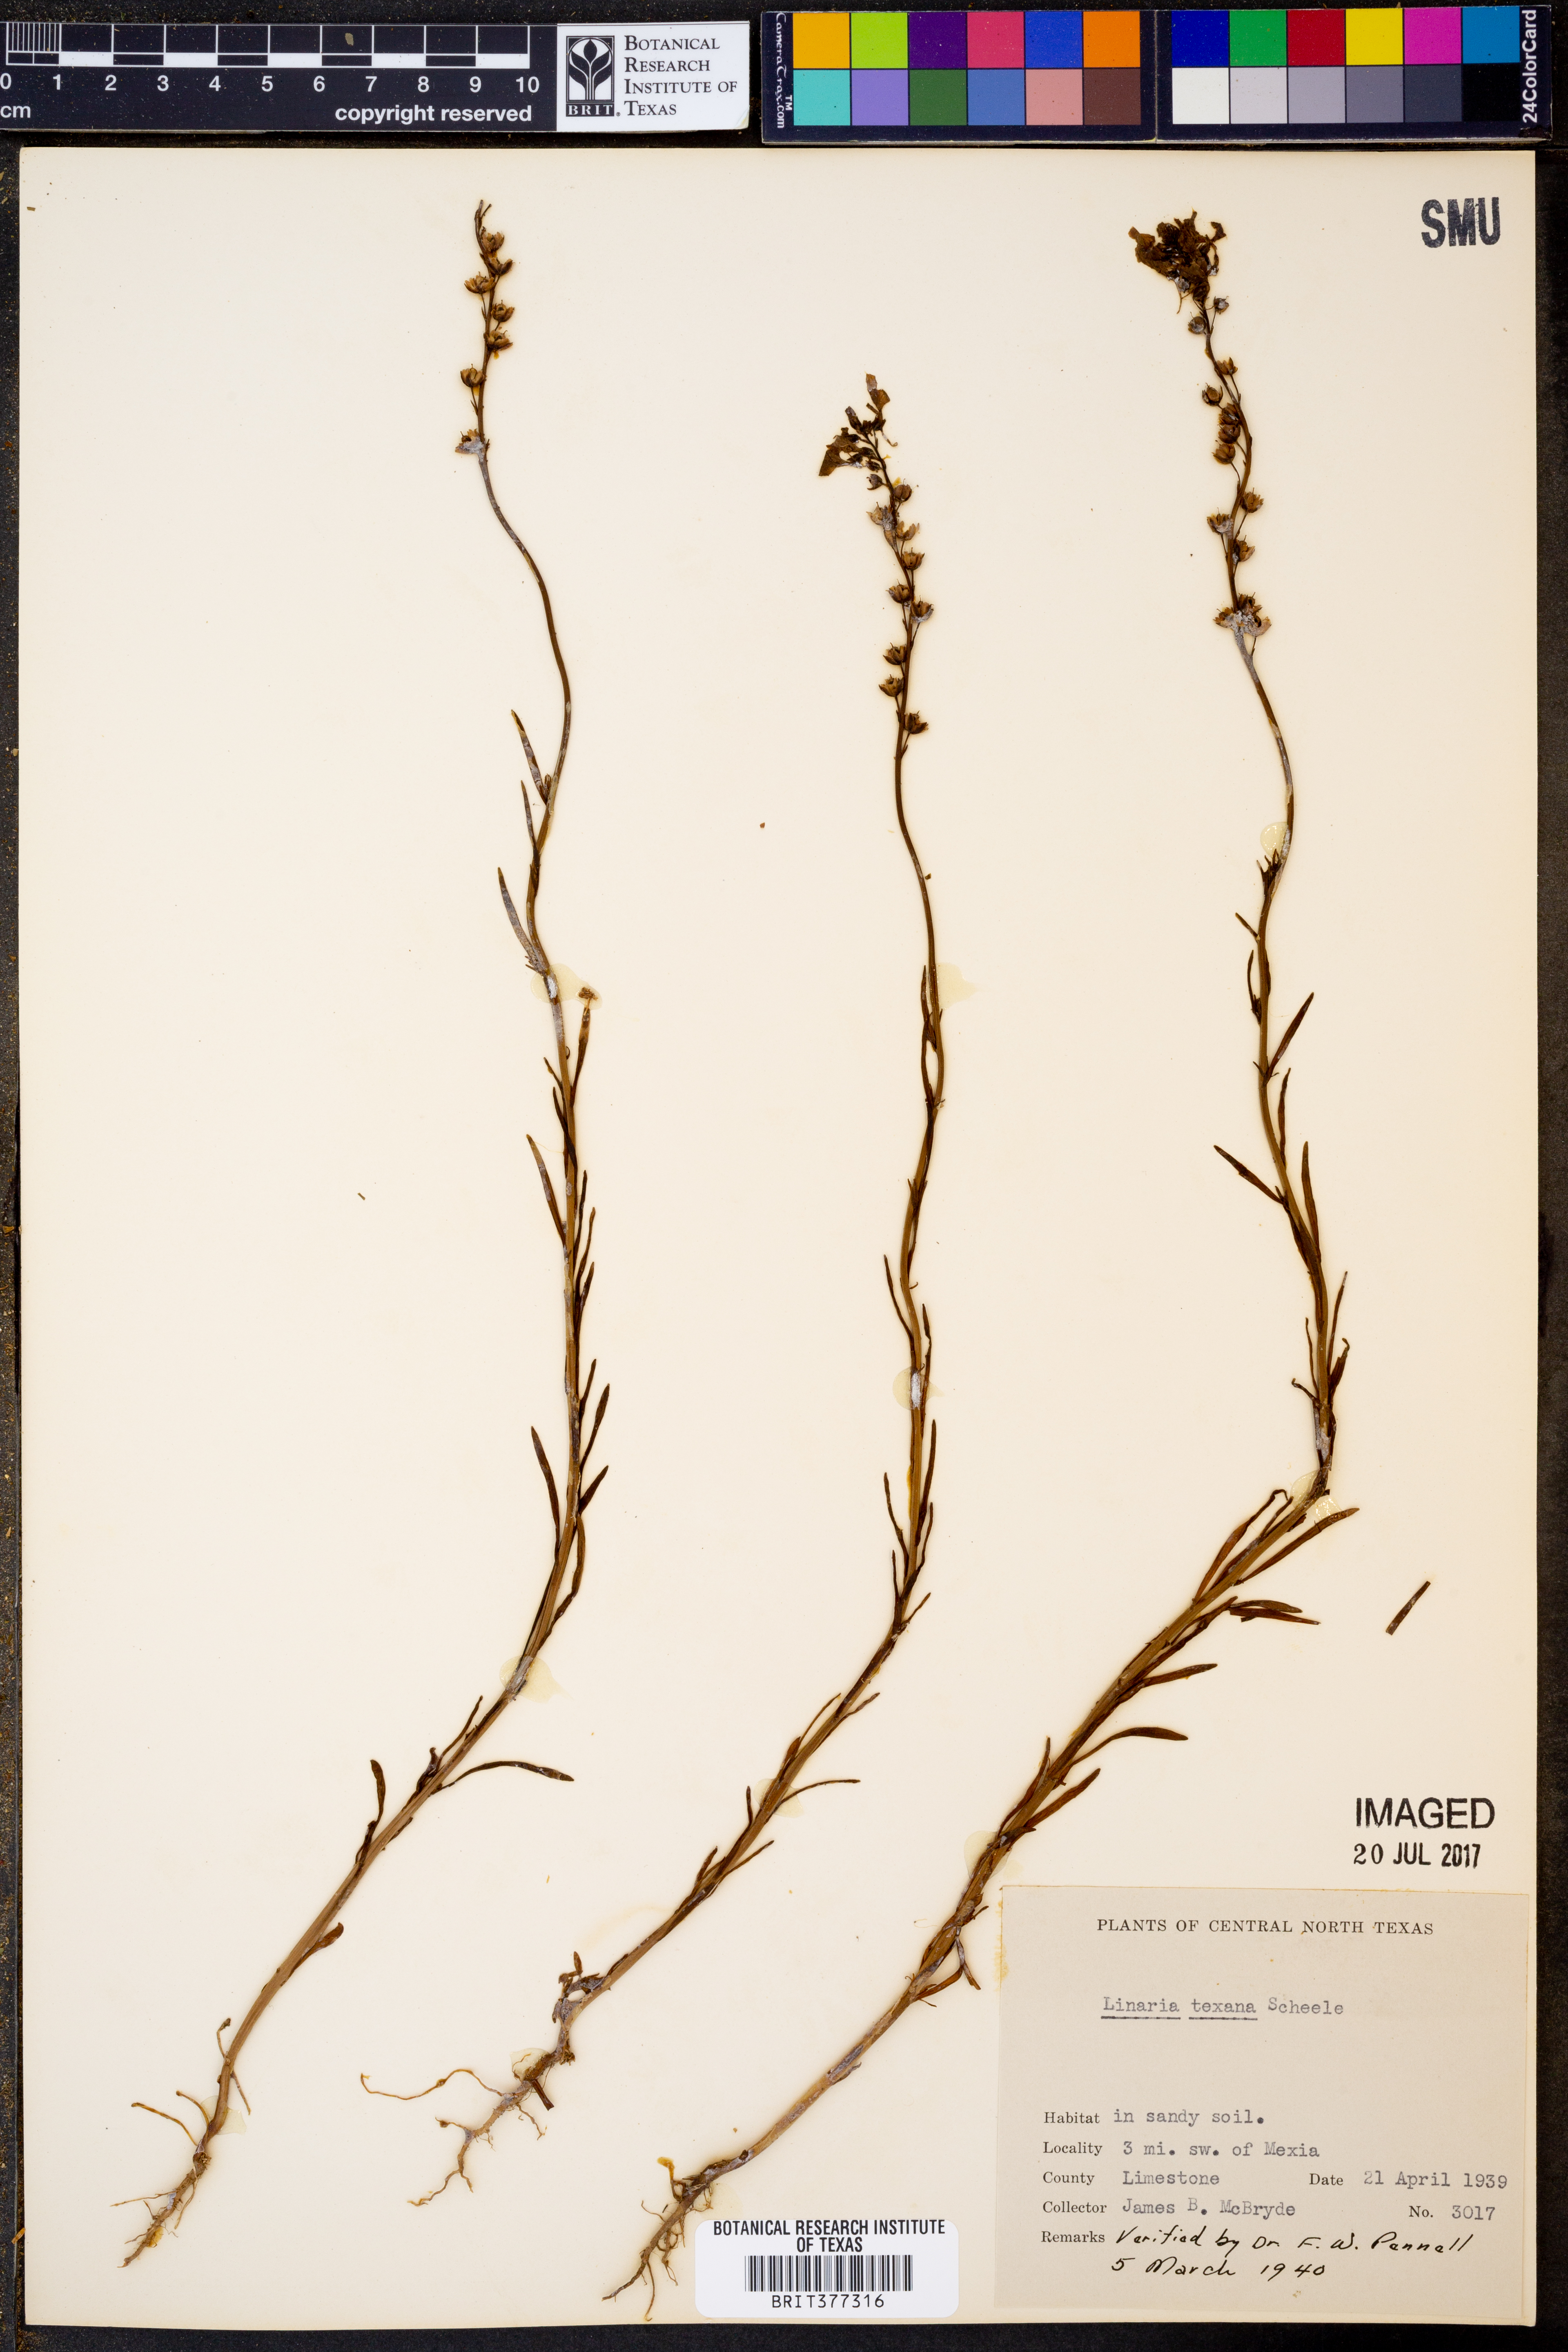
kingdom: Plantae
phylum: Tracheophyta
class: Magnoliopsida
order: Lamiales
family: Plantaginaceae
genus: Nuttallanthus
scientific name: Nuttallanthus texanus
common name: Texas toadflax
